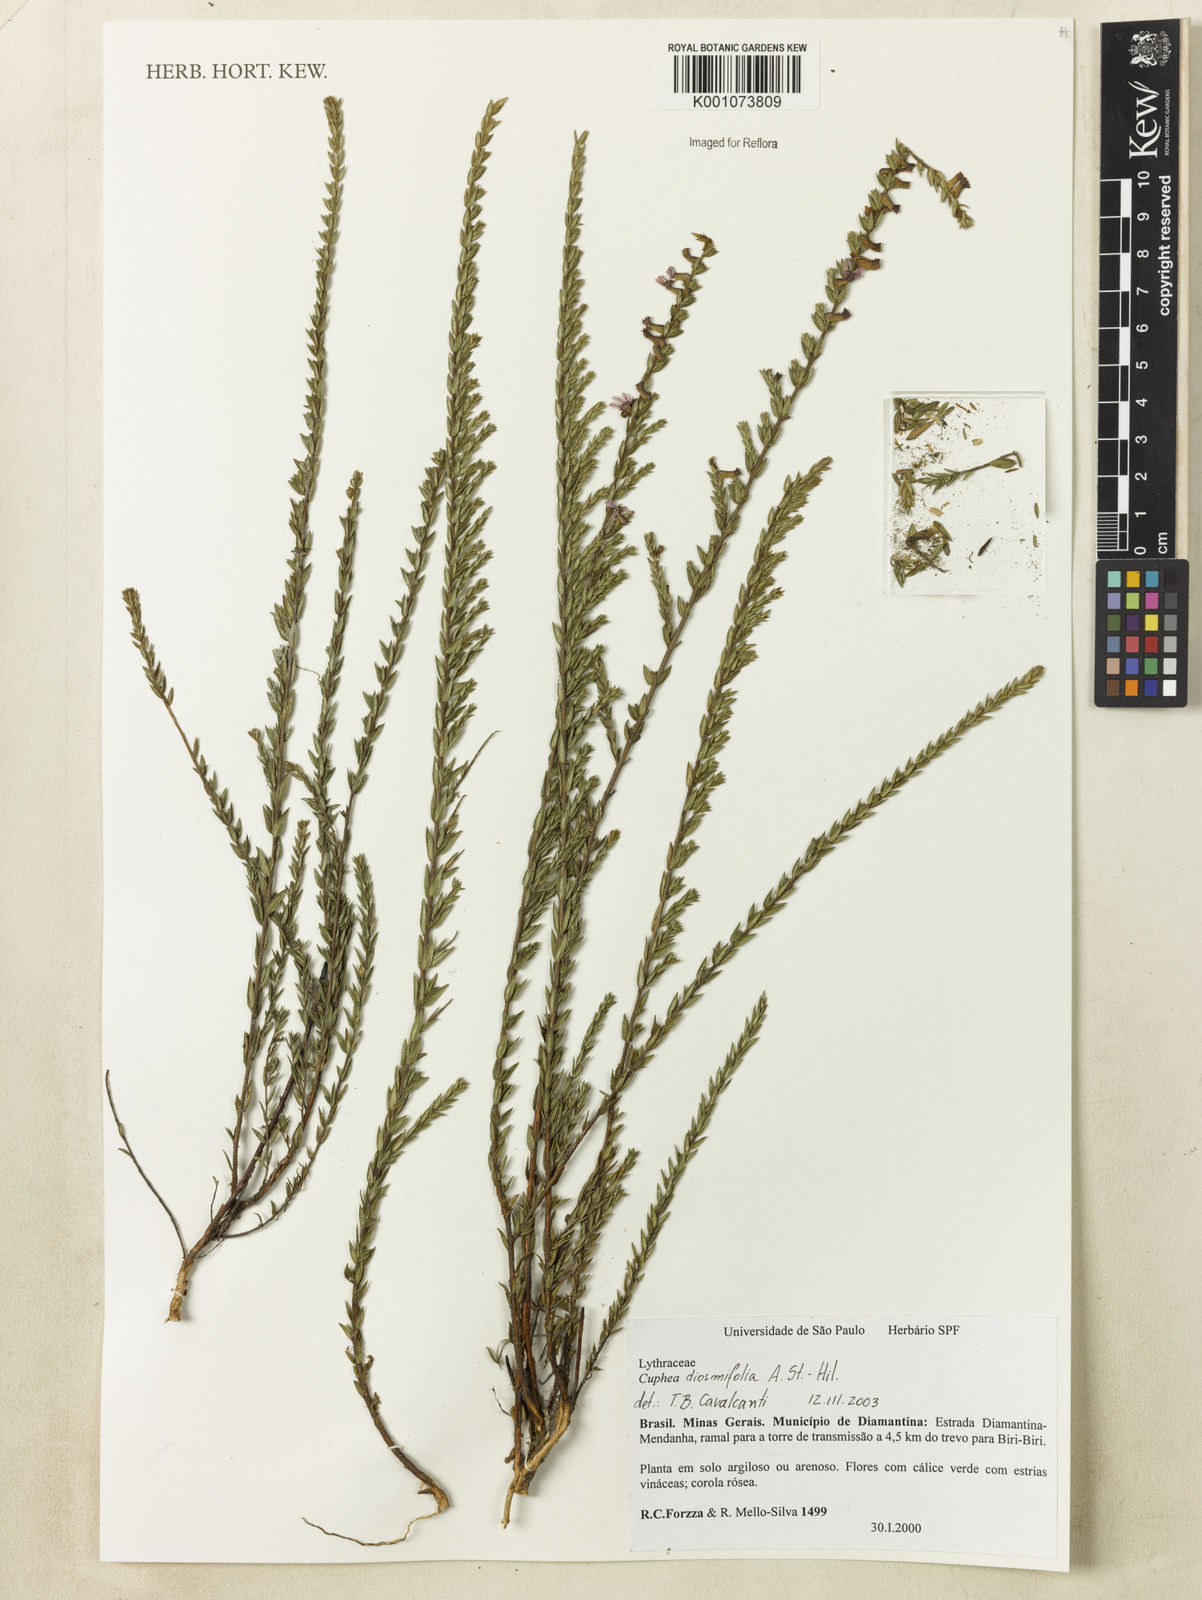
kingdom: Plantae
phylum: Tracheophyta
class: Magnoliopsida
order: Myrtales
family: Lythraceae
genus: Cuphea
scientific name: Cuphea diosmifolia
